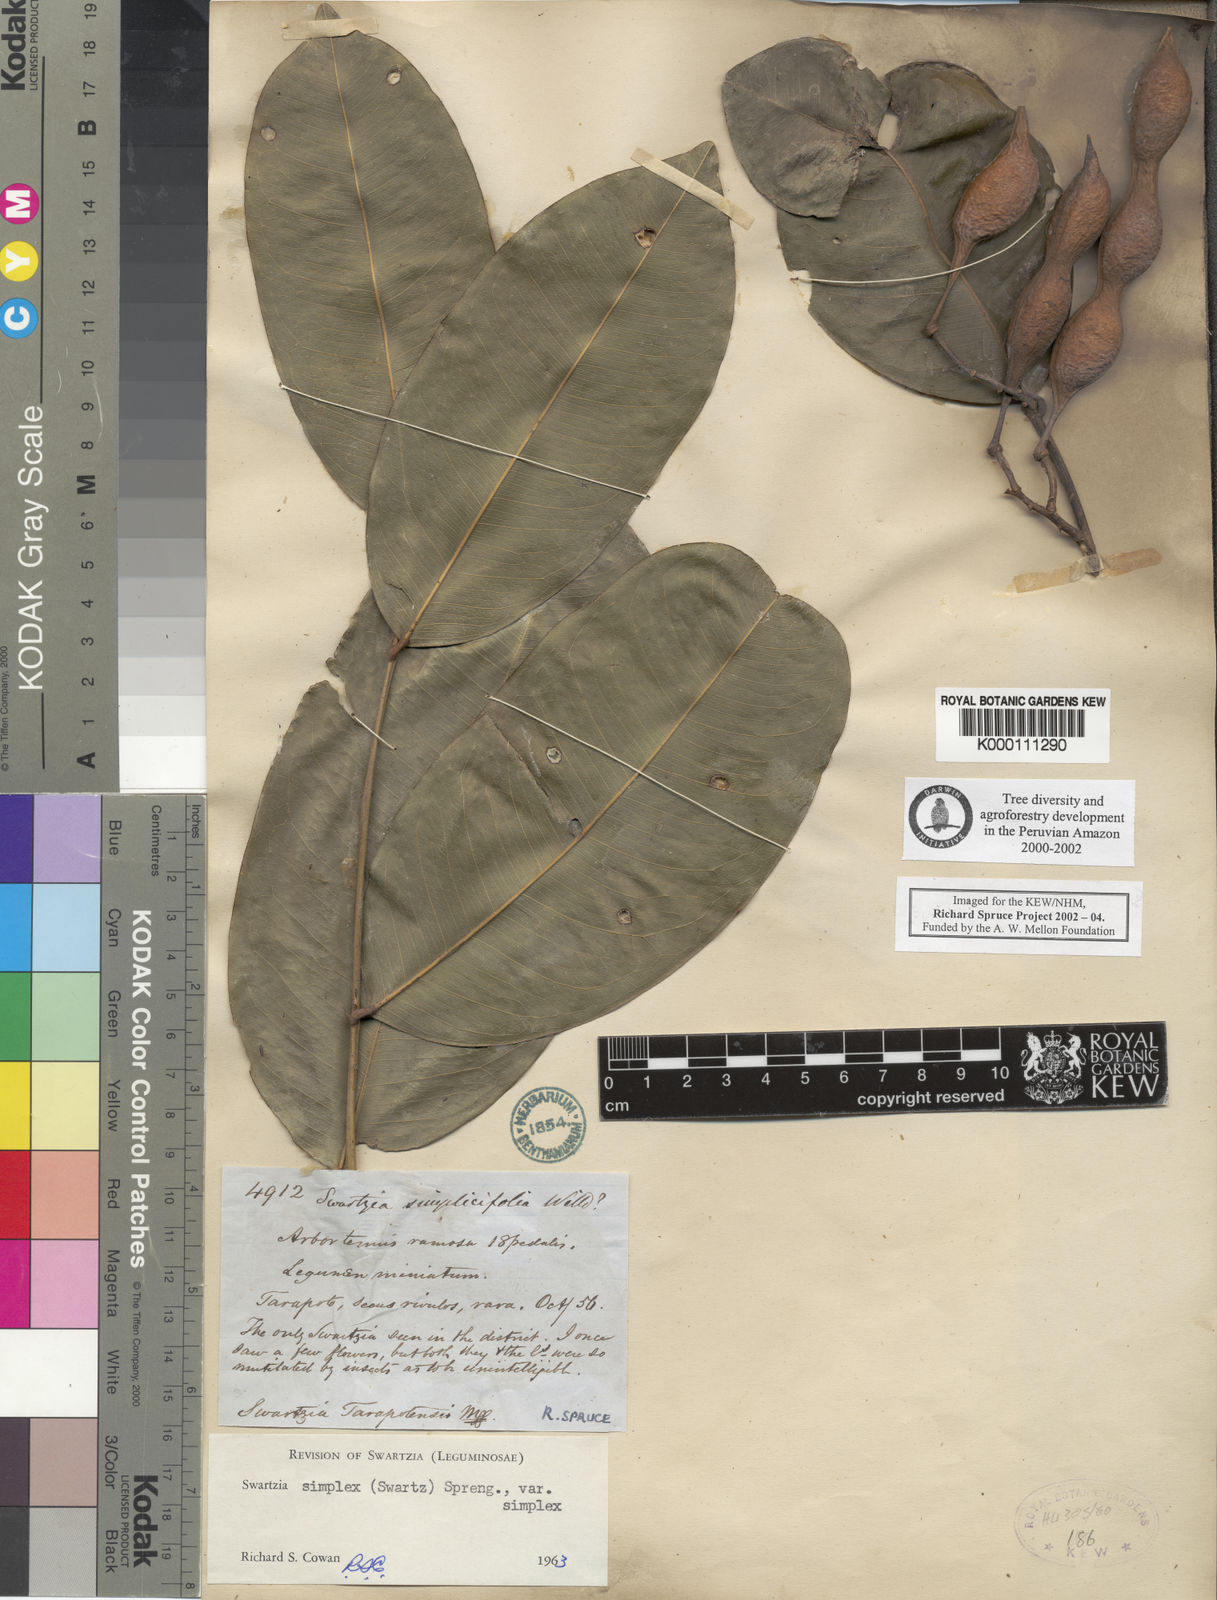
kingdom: Plantae
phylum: Tracheophyta
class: Magnoliopsida
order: Fabales
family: Fabaceae
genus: Swartzia
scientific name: Swartzia simplex
